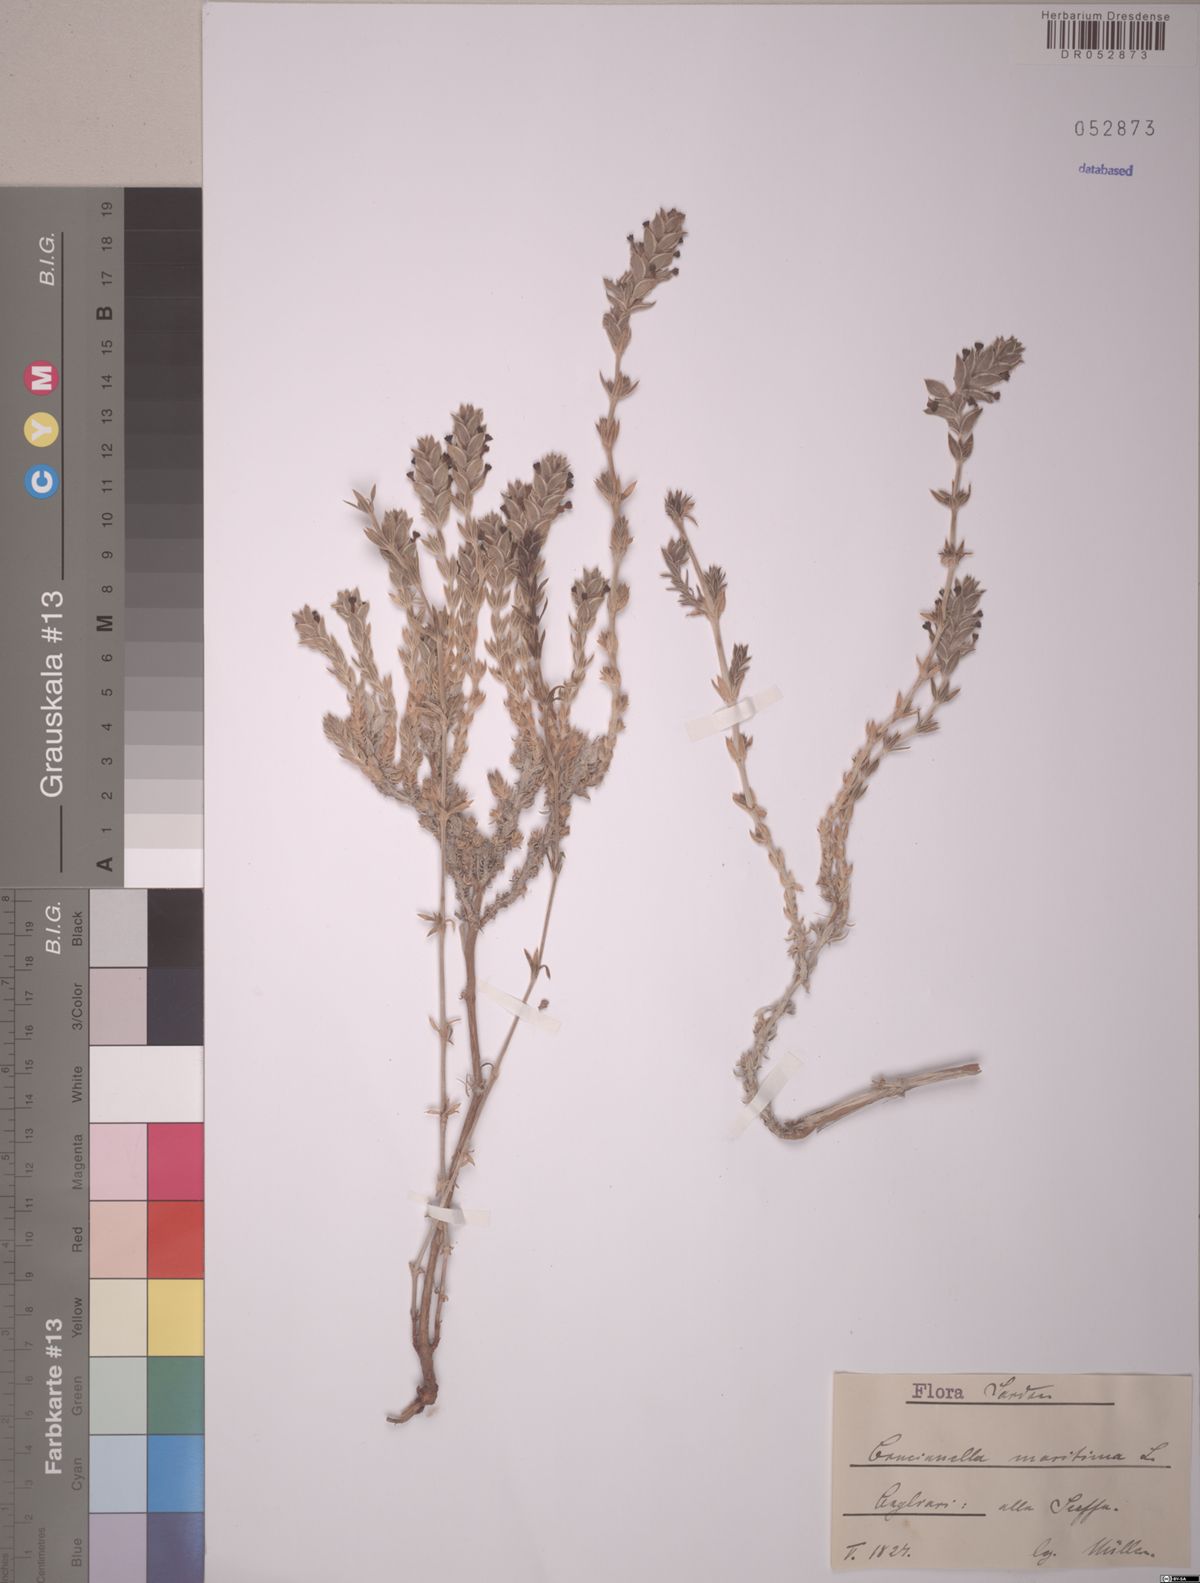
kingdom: Plantae
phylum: Tracheophyta
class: Magnoliopsida
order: Gentianales
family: Rubiaceae
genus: Crucianella
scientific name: Crucianella maritima
